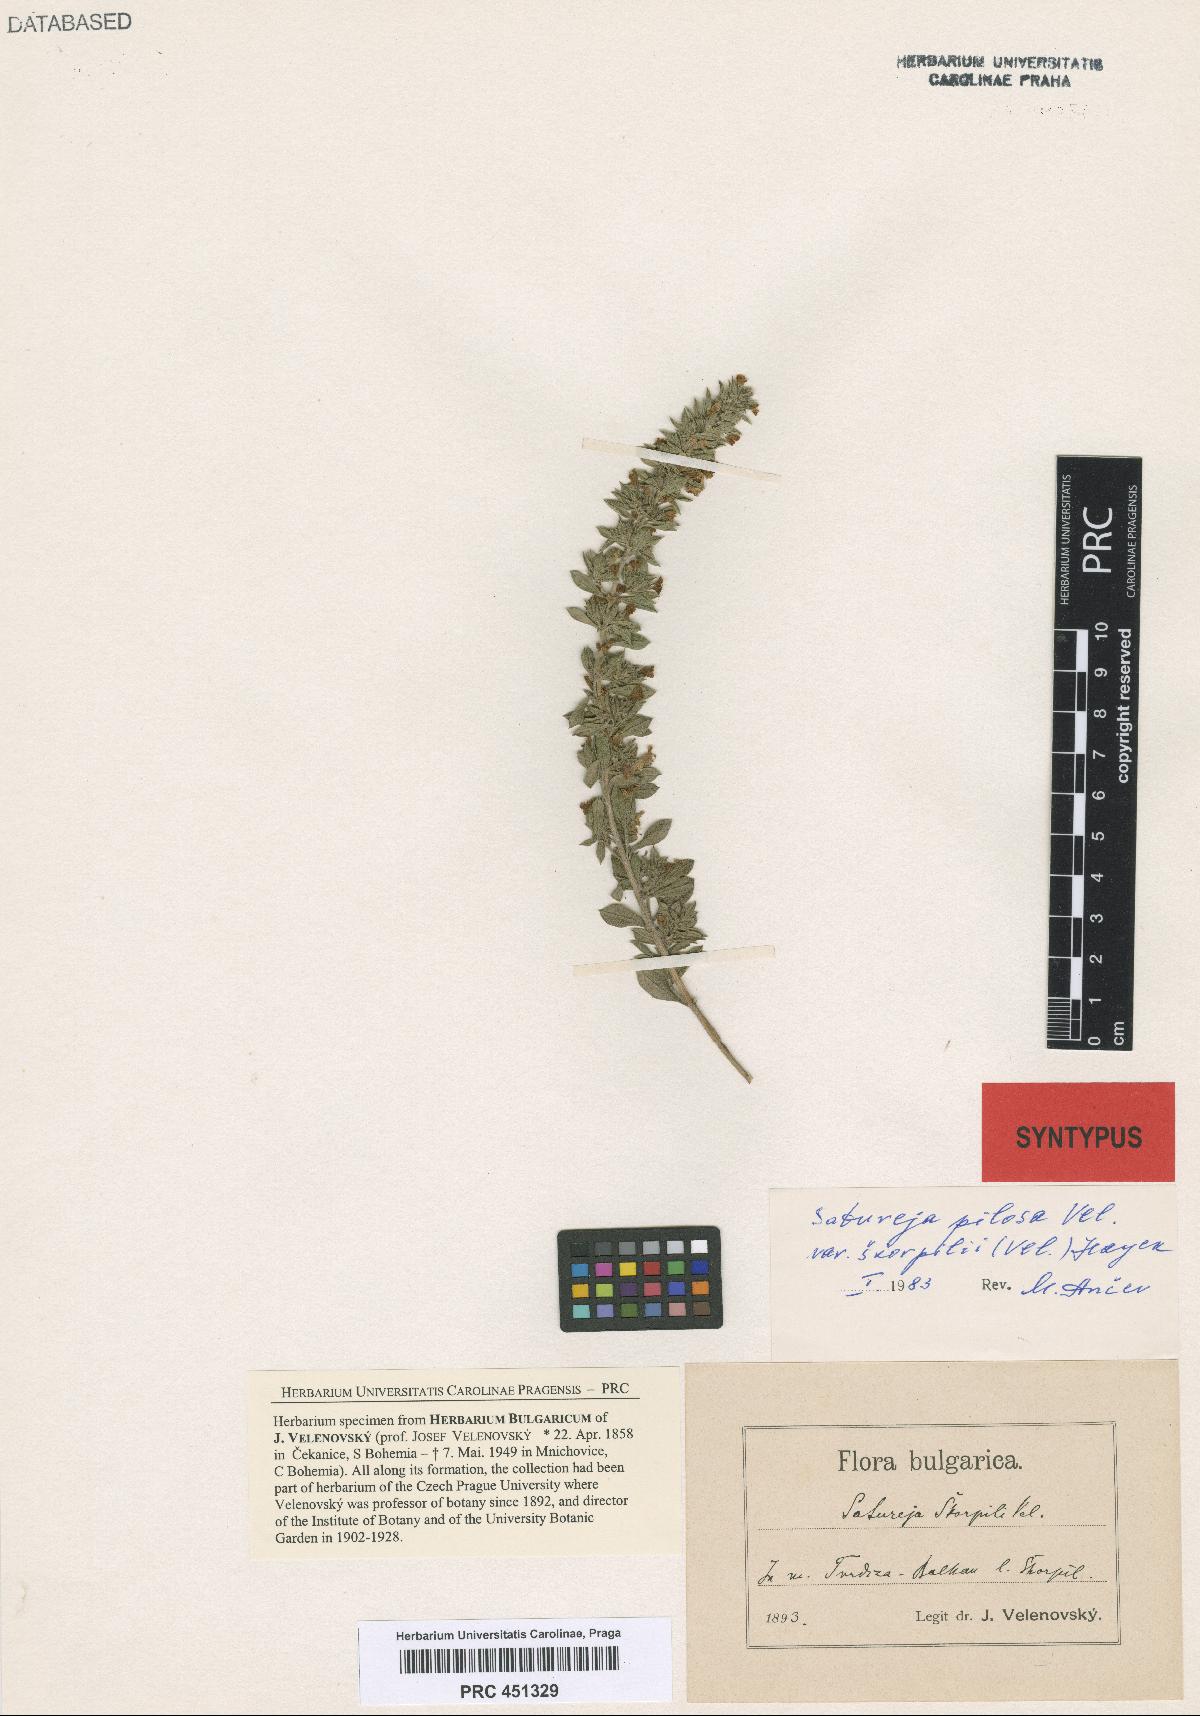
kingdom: Plantae
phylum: Tracheophyta
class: Magnoliopsida
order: Lamiales
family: Lamiaceae
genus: Satureja
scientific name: Satureja coerulea
